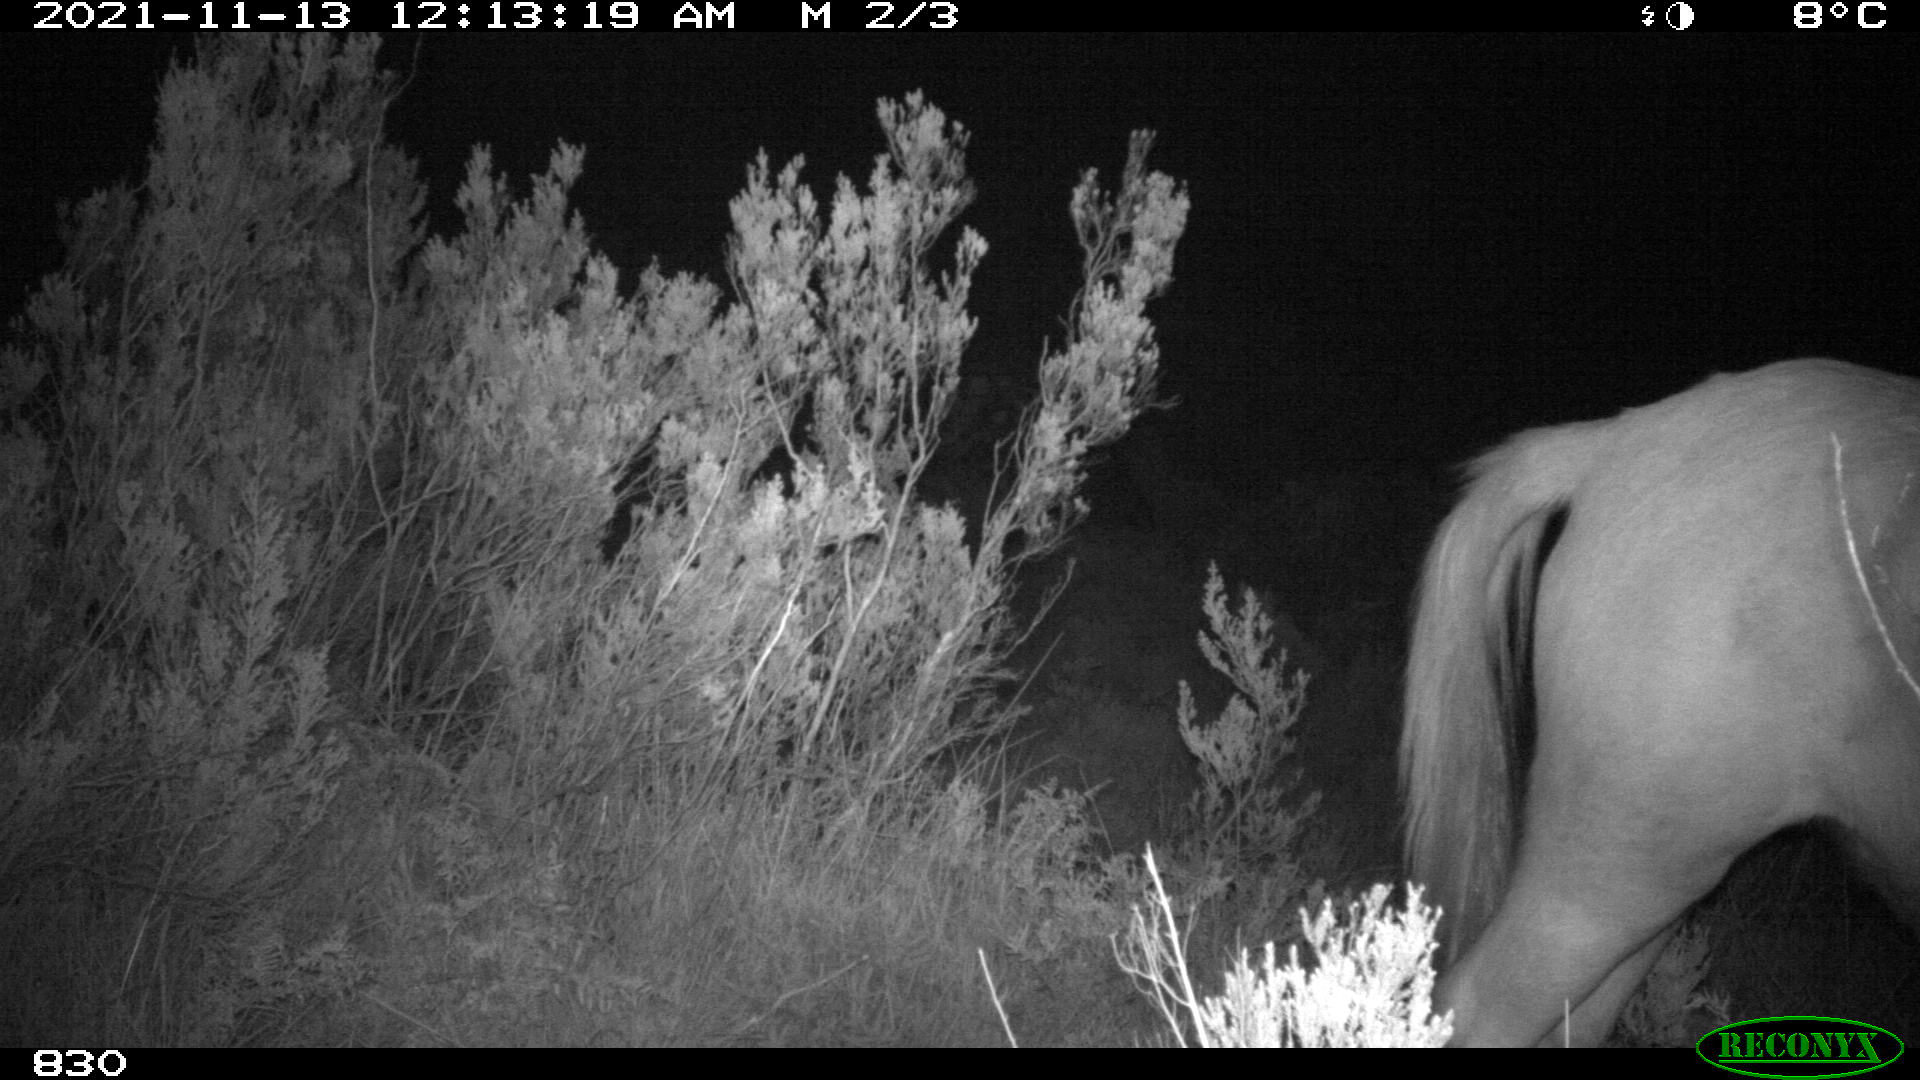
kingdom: Animalia
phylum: Chordata
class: Mammalia
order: Perissodactyla
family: Equidae
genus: Equus
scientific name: Equus caballus
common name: Horse
